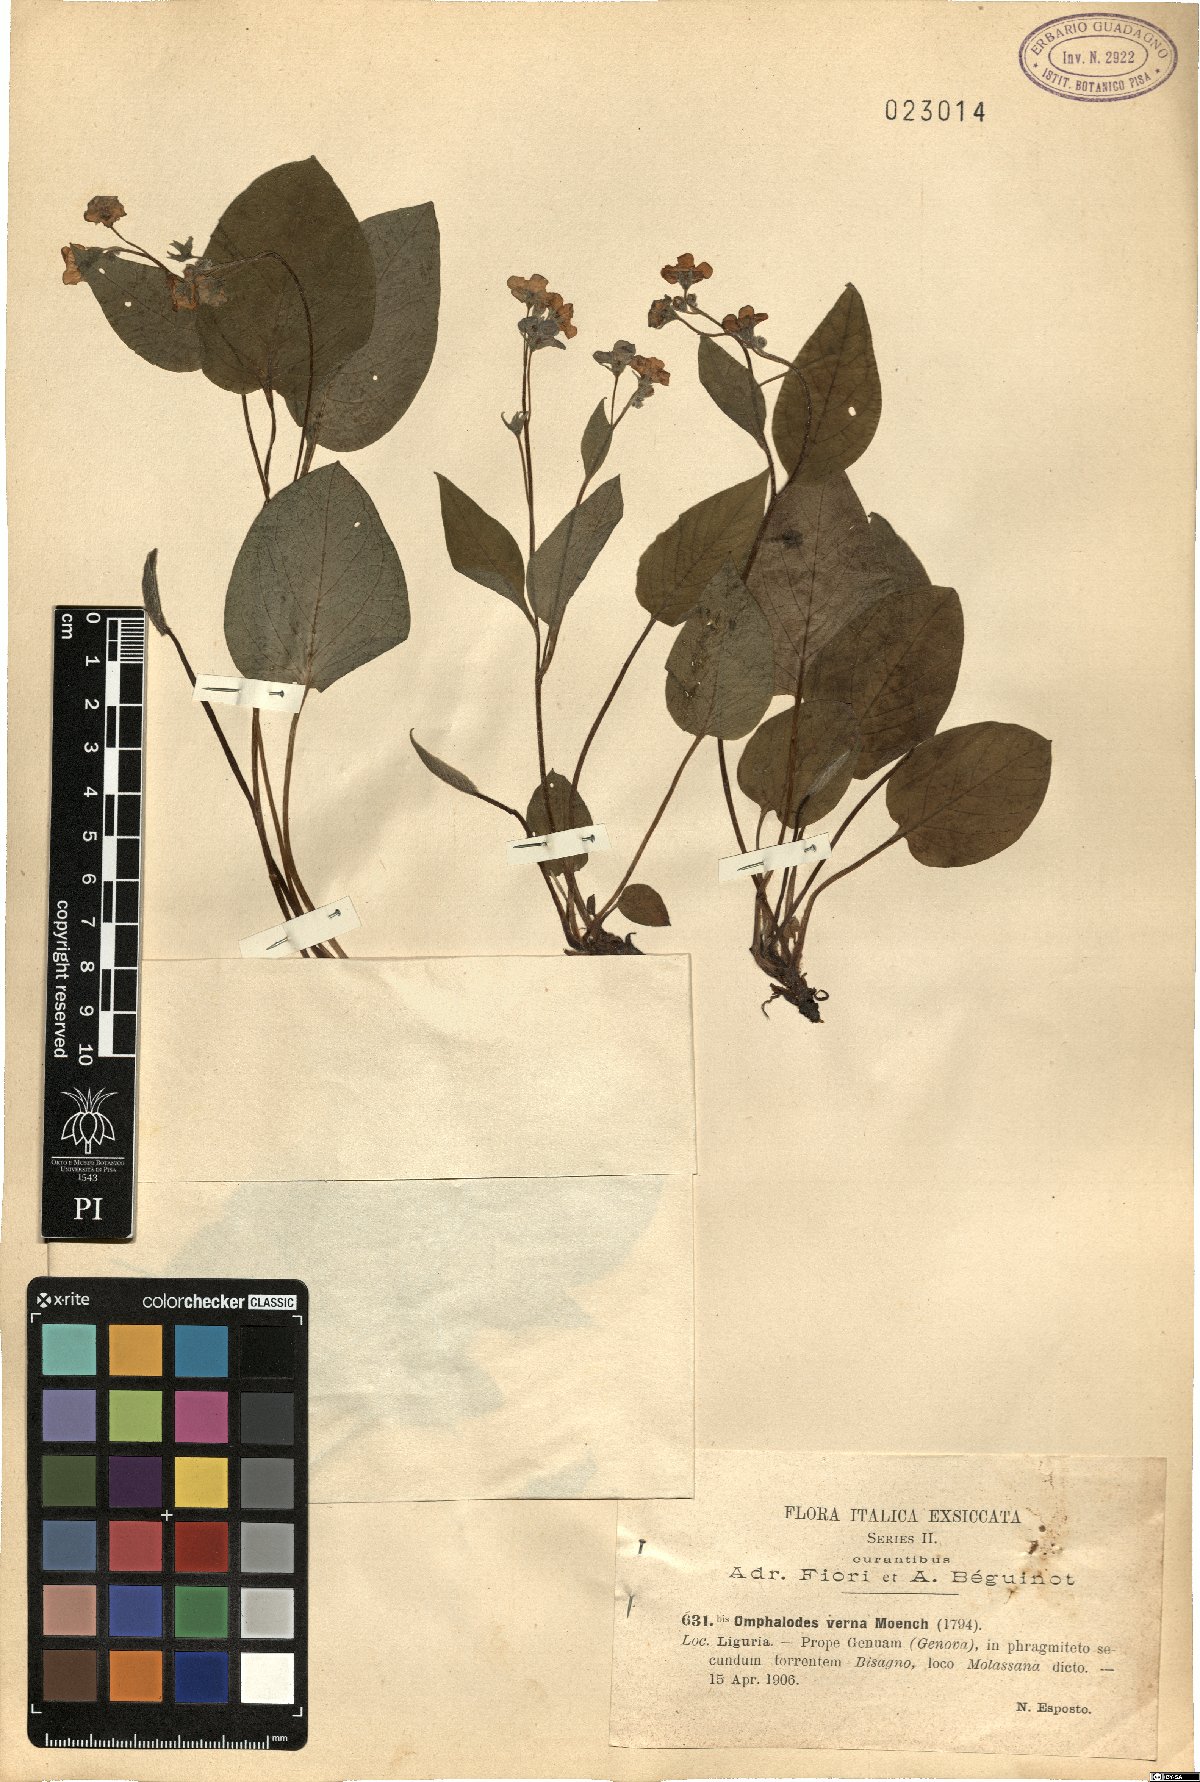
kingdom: Plantae
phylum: Tracheophyta
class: Magnoliopsida
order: Boraginales
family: Boraginaceae
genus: Omphalodes
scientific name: Omphalodes verna
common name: Blue-eyed-mary
